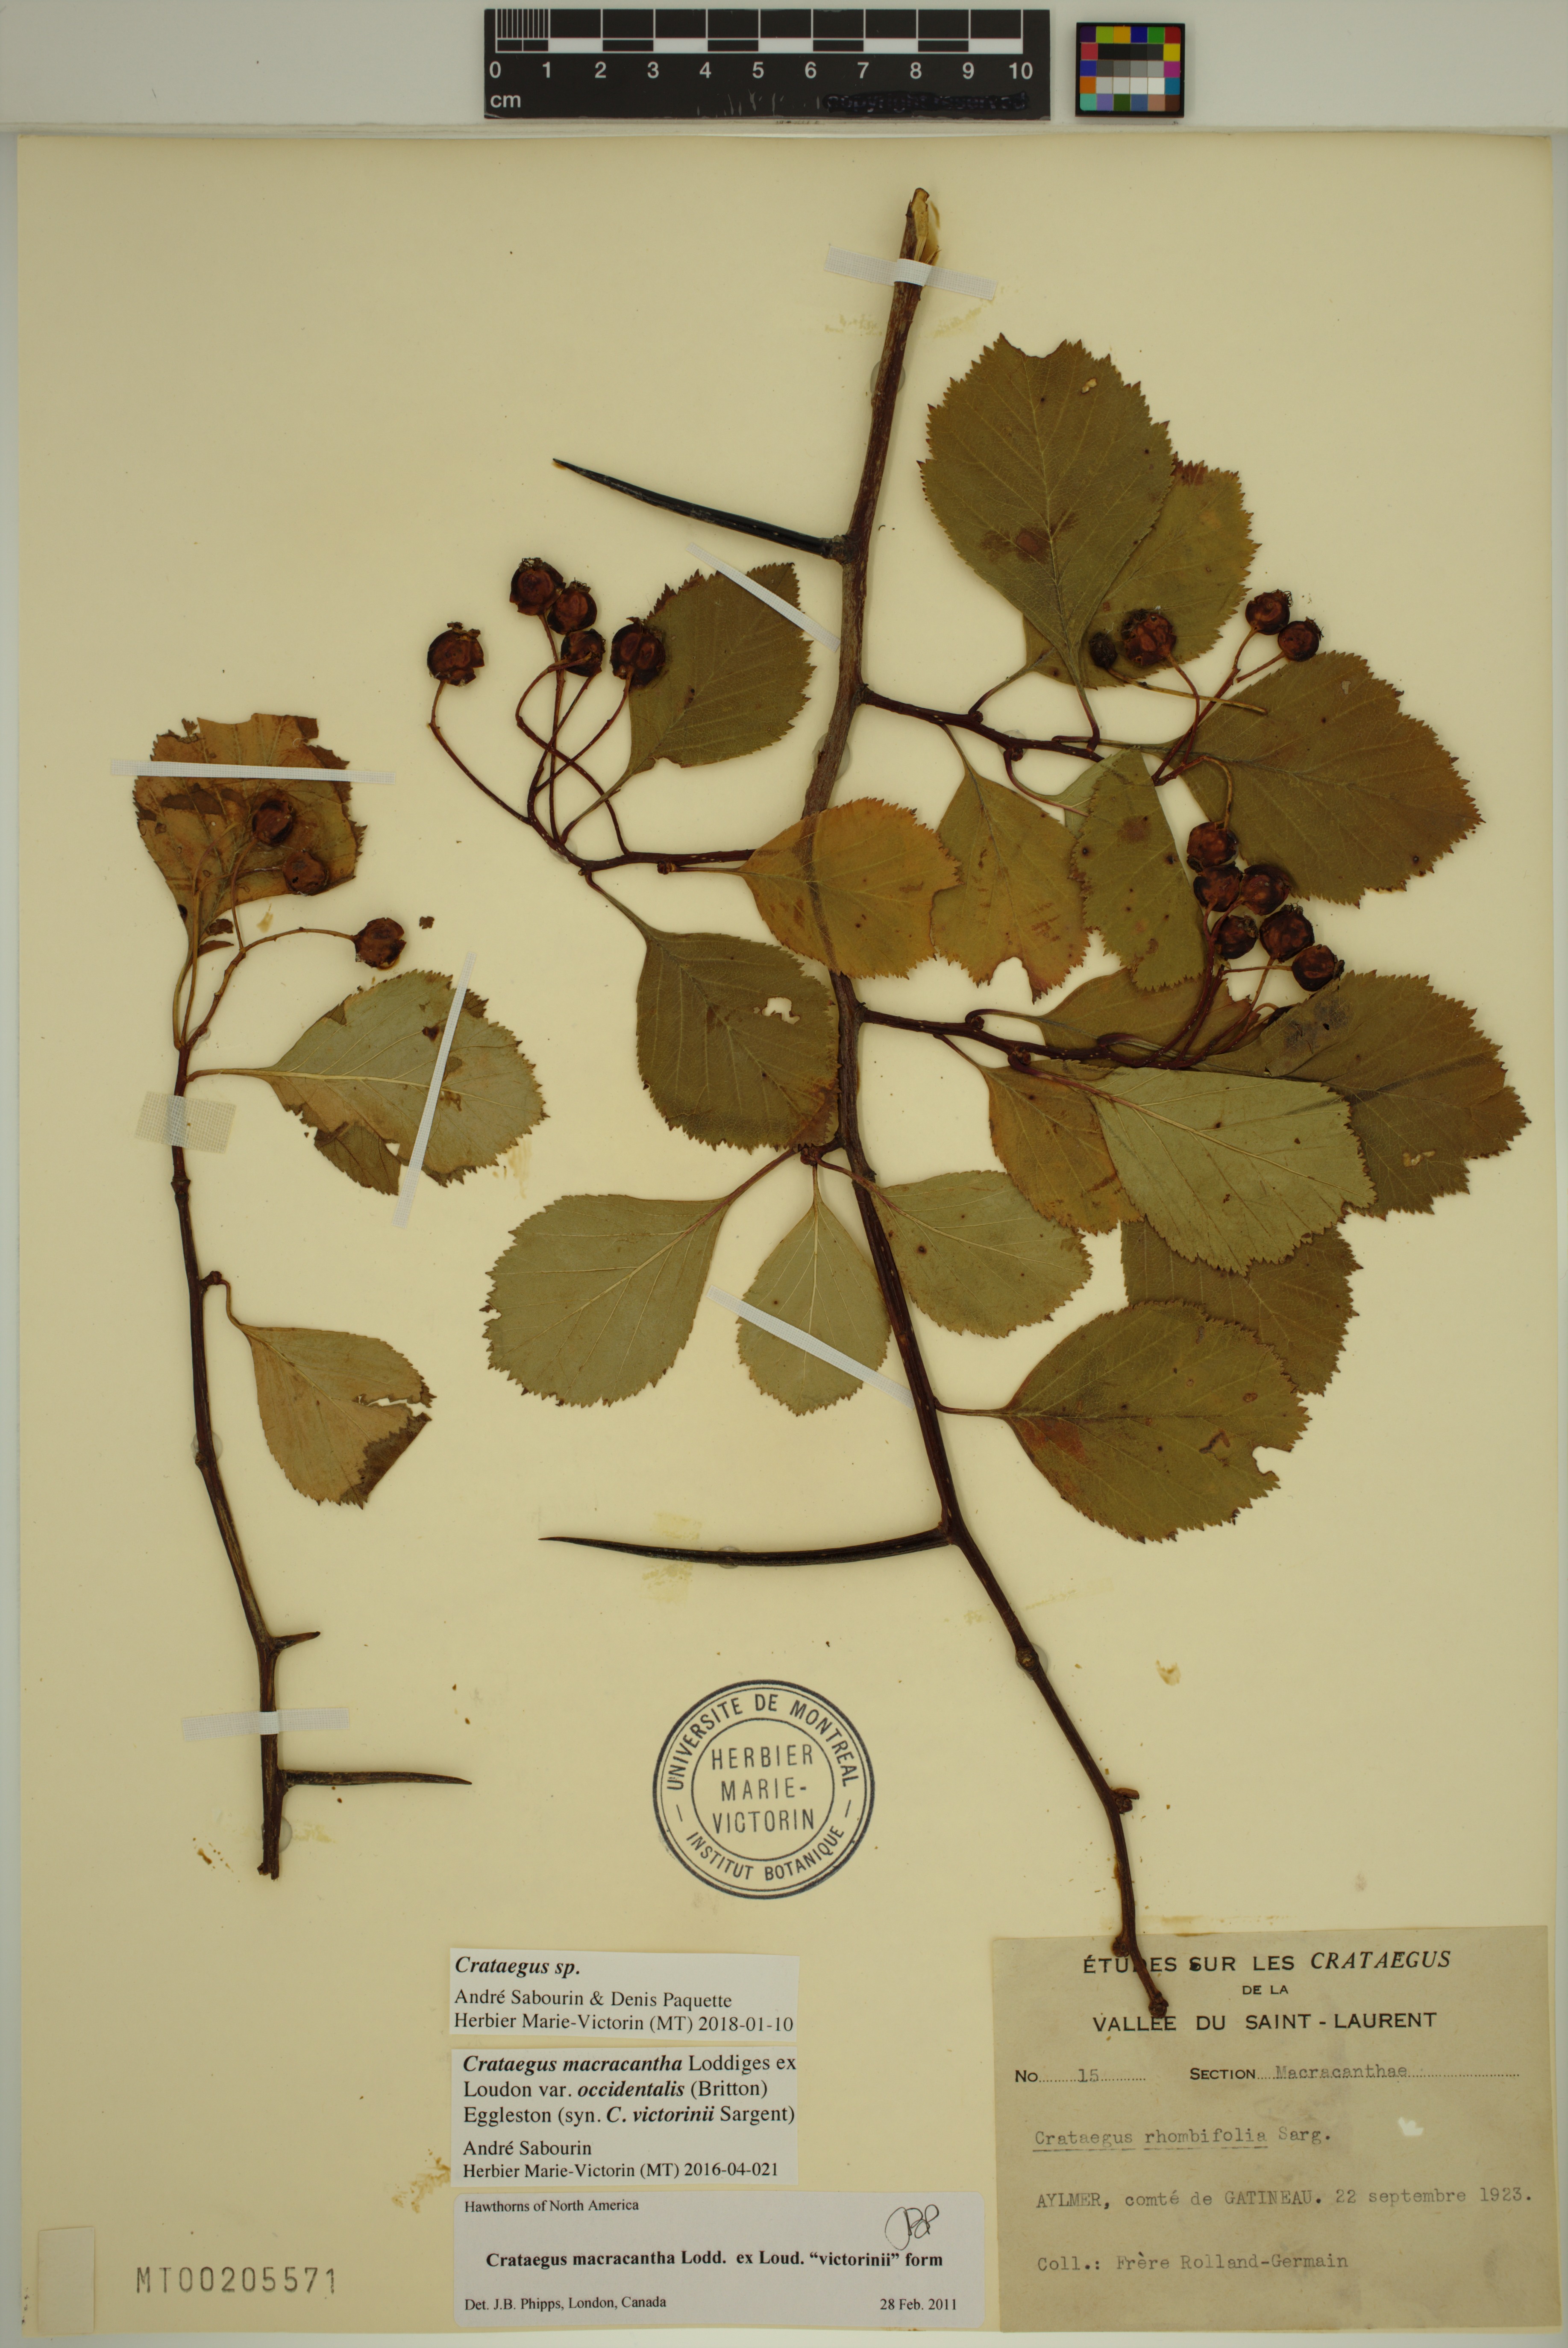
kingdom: Plantae
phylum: Tracheophyta
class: Magnoliopsida
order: Rosales
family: Rosaceae
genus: Crataegus
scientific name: Crataegus macracantha
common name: Large-thorn hawthorn
